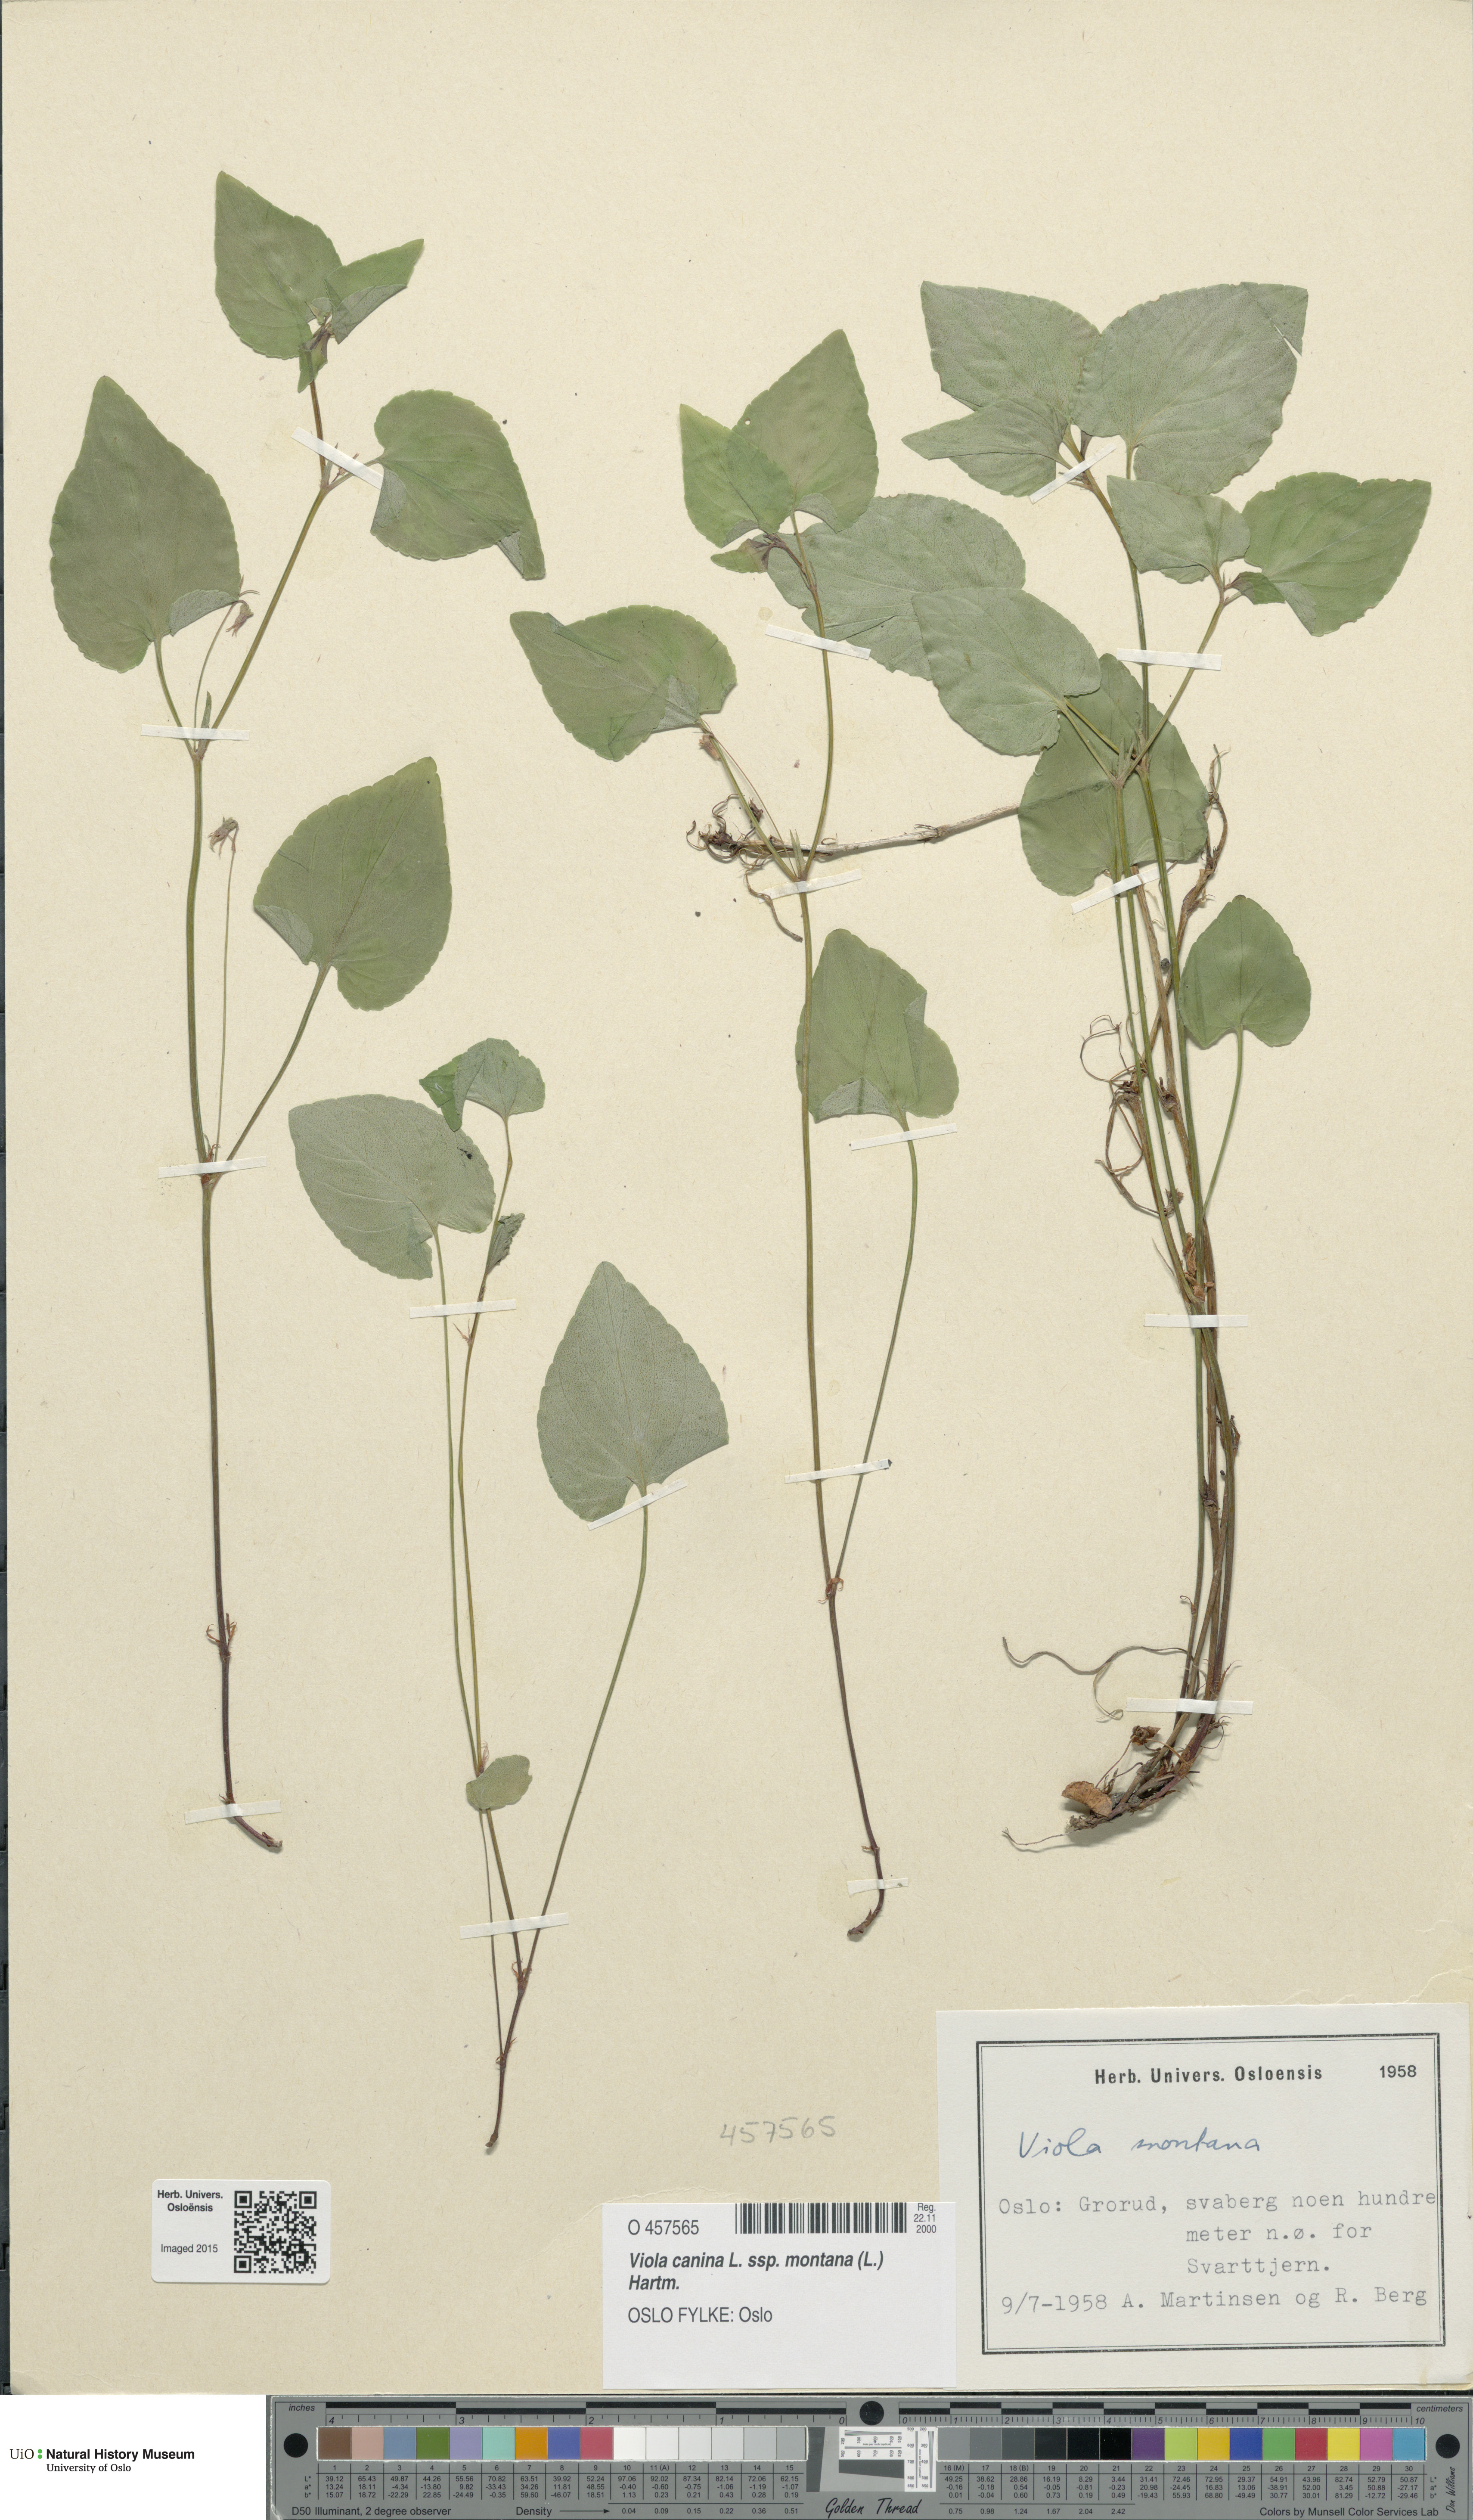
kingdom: Plantae
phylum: Tracheophyta
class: Magnoliopsida
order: Malpighiales
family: Violaceae
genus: Viola
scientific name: Viola ruppii
